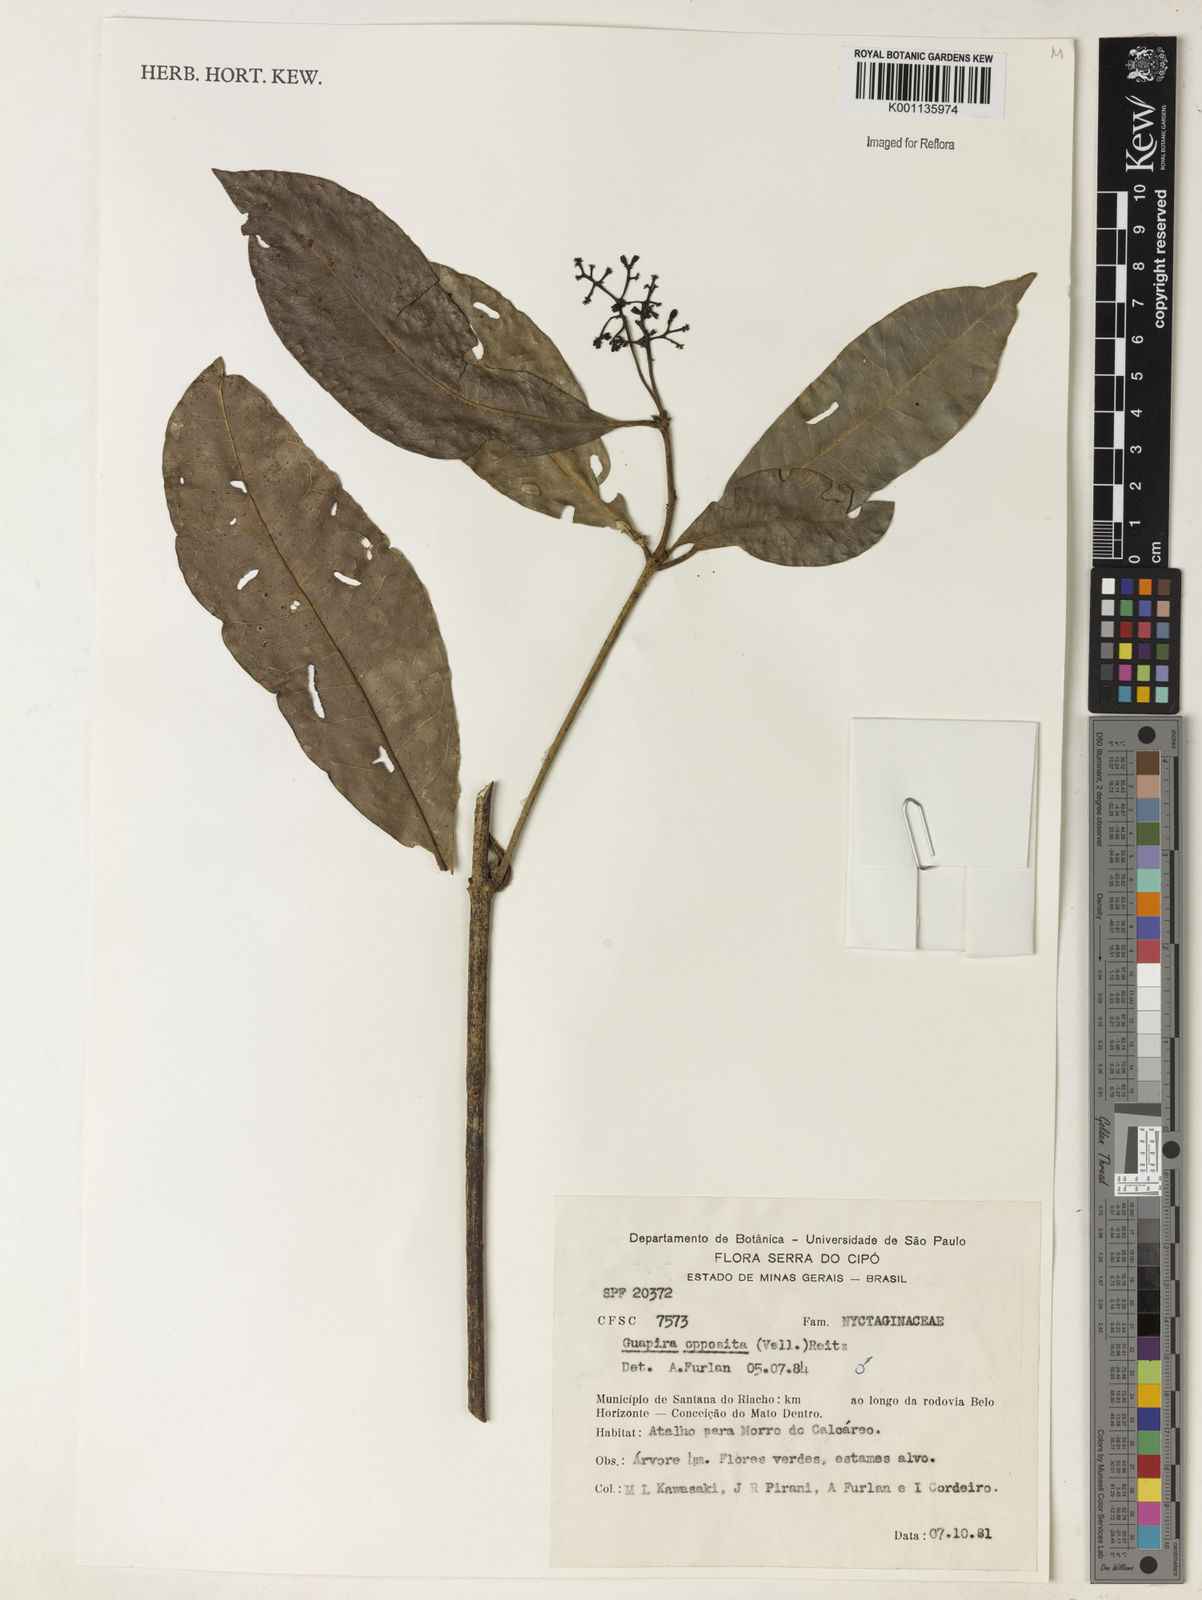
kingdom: Plantae
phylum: Tracheophyta
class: Magnoliopsida
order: Caryophyllales
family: Nyctaginaceae
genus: Guapira
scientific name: Guapira opposita
